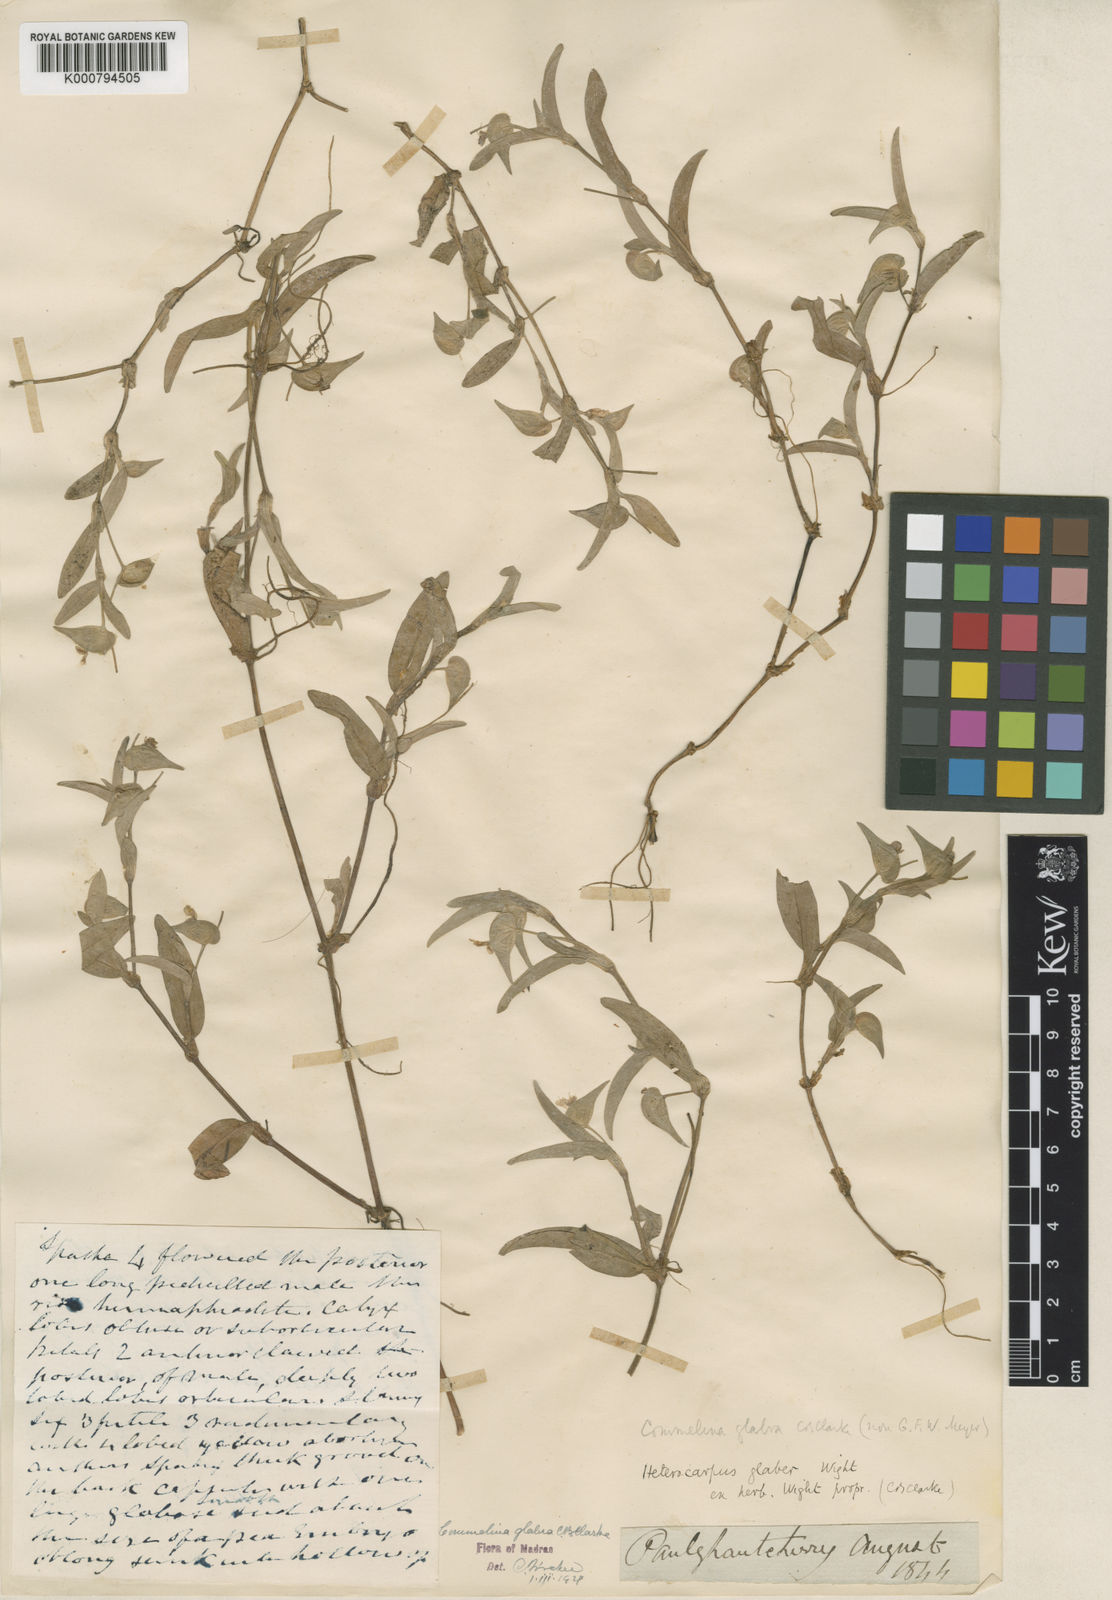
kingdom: Plantae
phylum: Tracheophyta
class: Liliopsida
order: Commelinales
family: Commelinaceae
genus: Commelina
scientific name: Commelina
